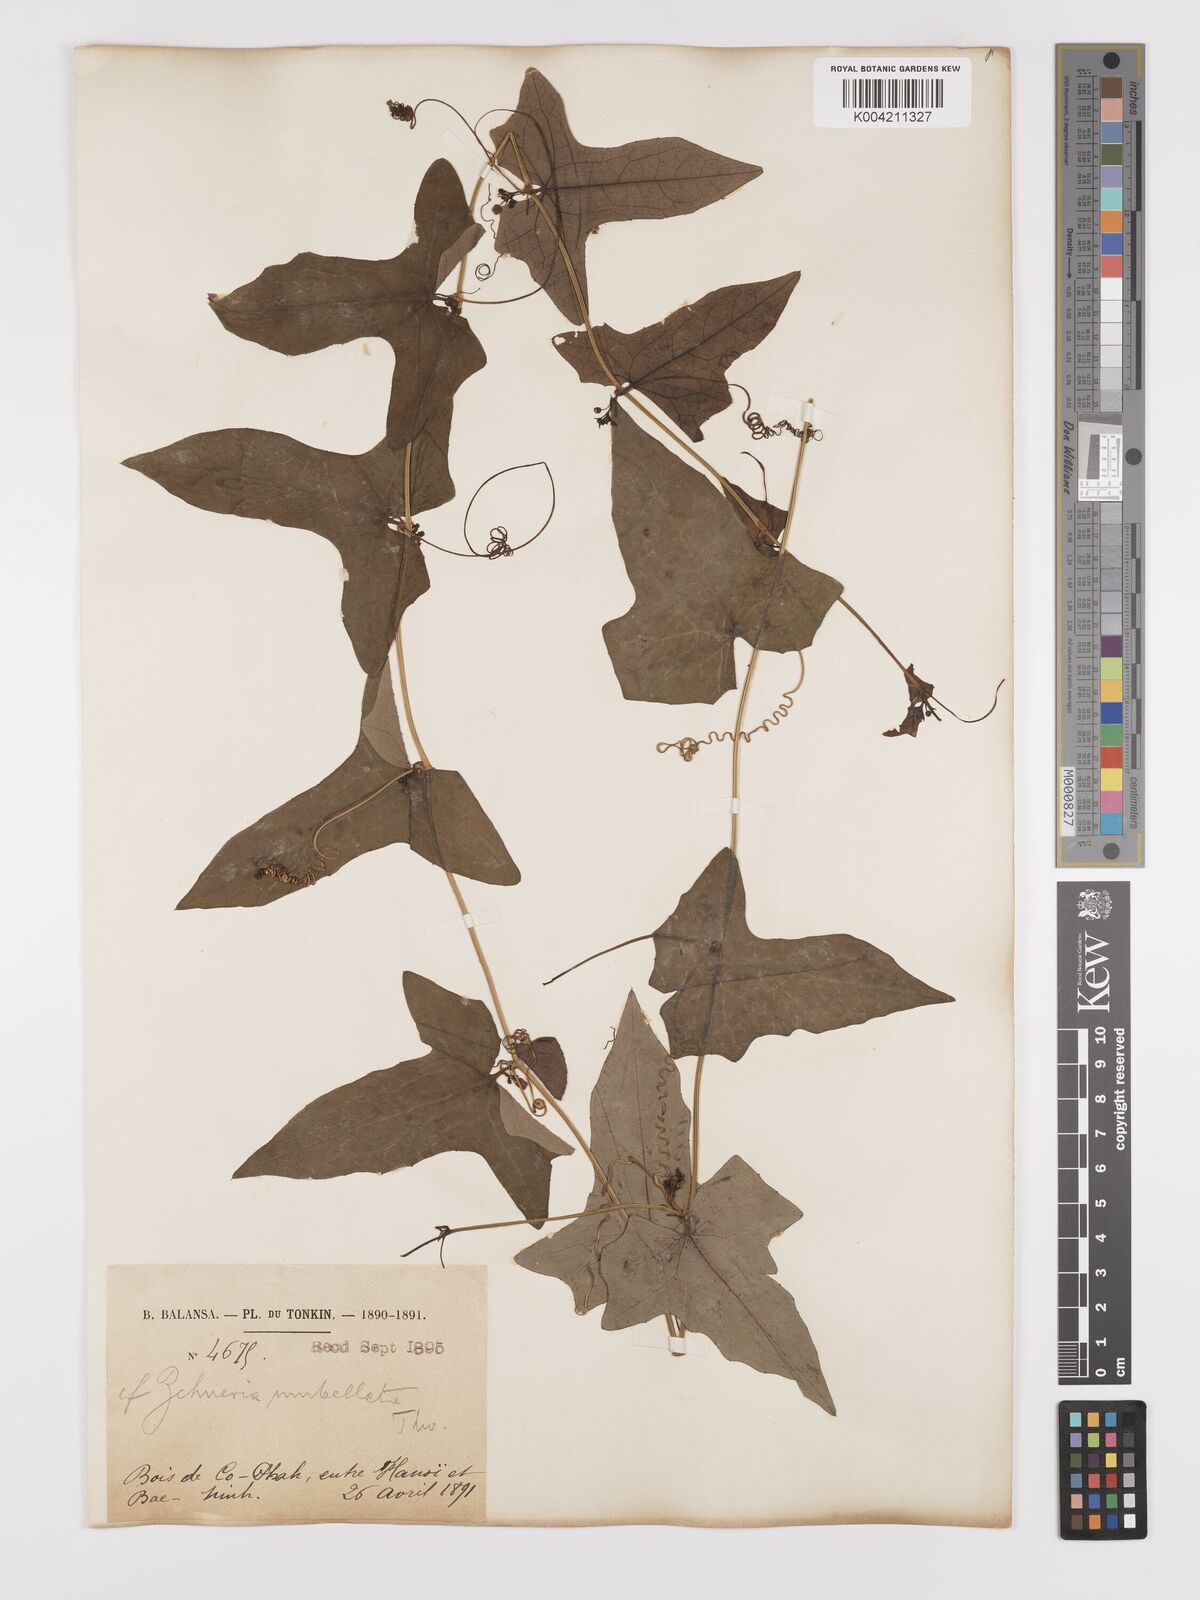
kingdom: Plantae
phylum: Tracheophyta
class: Magnoliopsida
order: Cucurbitales
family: Cucurbitaceae
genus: Solena
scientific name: Solena amplexicaulis
